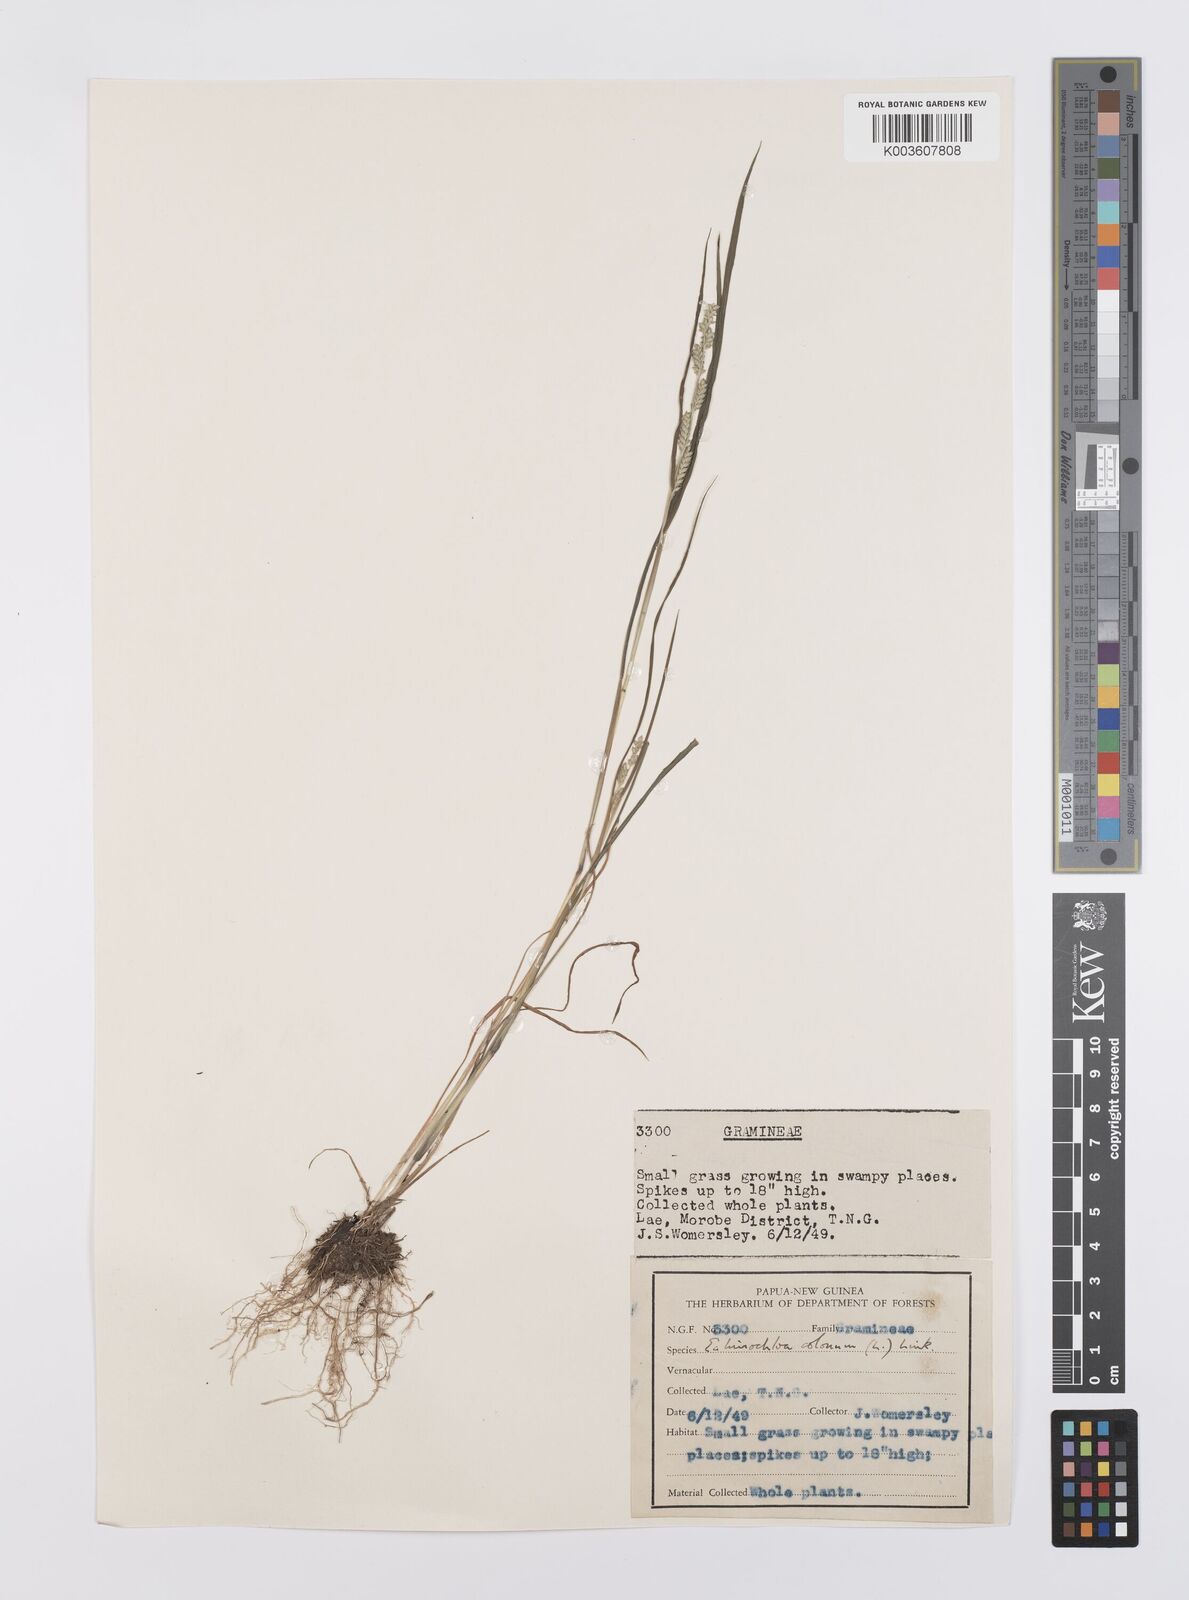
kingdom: Plantae
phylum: Tracheophyta
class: Liliopsida
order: Poales
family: Poaceae
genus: Echinochloa
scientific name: Echinochloa colonum
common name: Jungle rice
